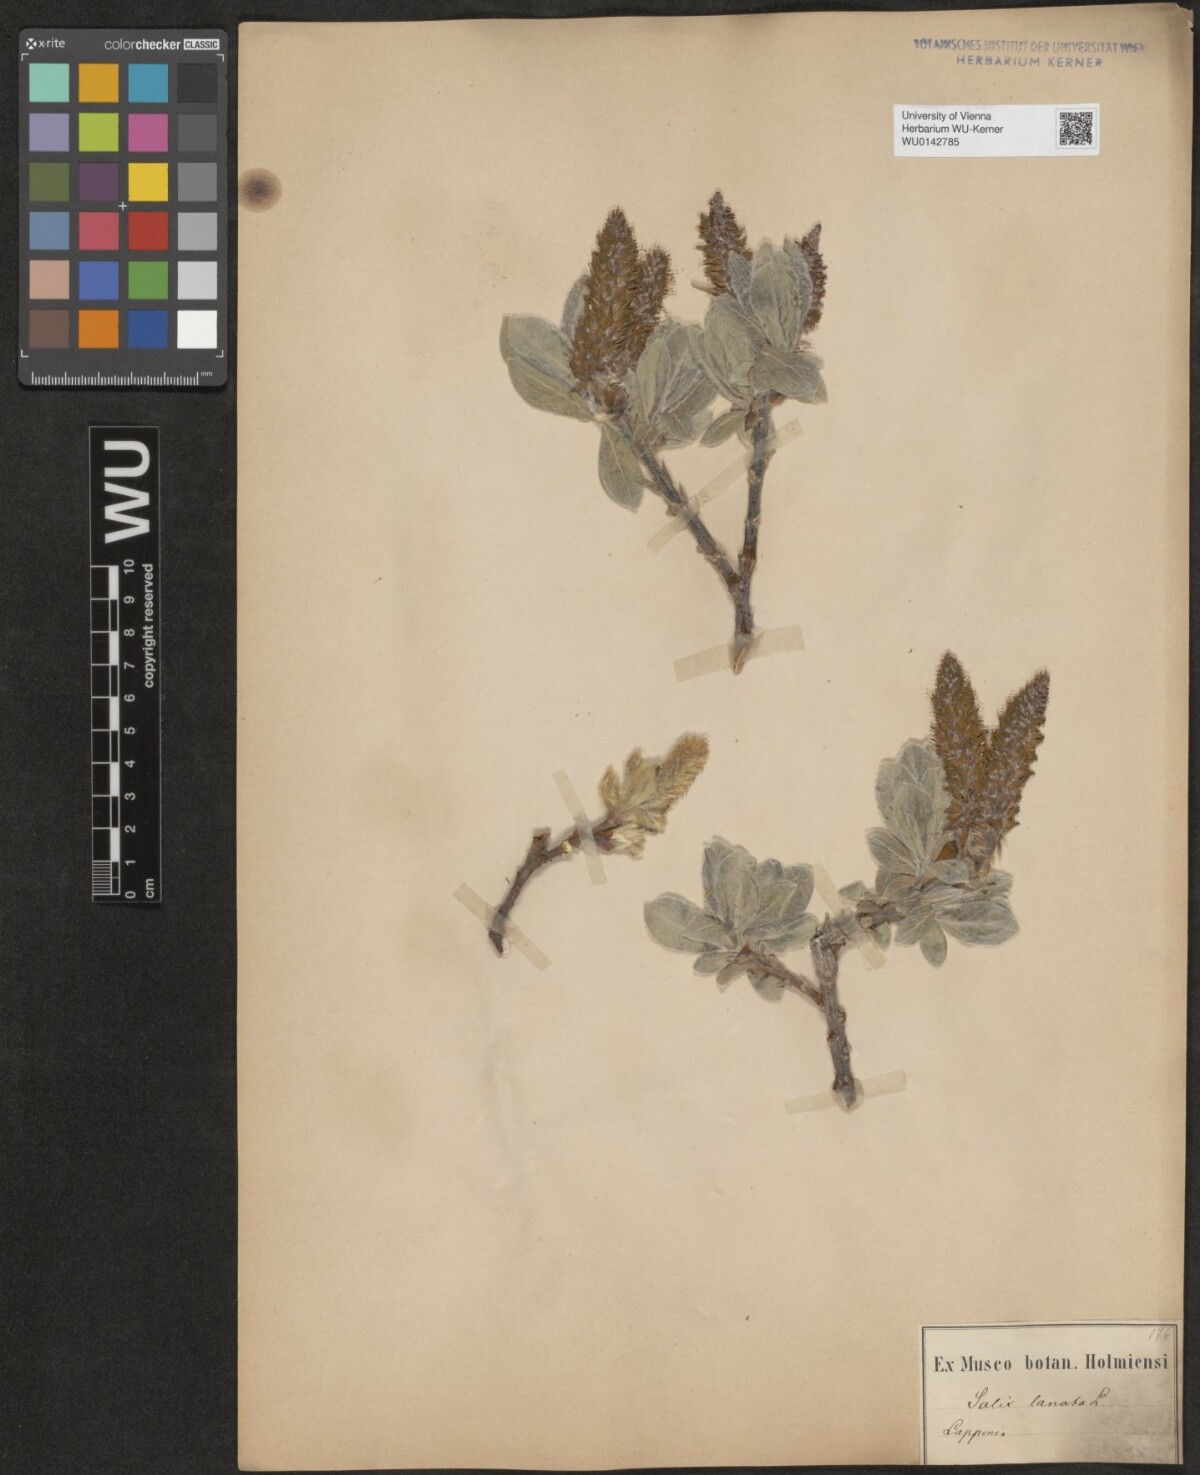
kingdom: Plantae
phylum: Tracheophyta
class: Magnoliopsida
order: Malpighiales
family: Salicaceae
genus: Salix
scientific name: Salix lanata
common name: Woolly willow
